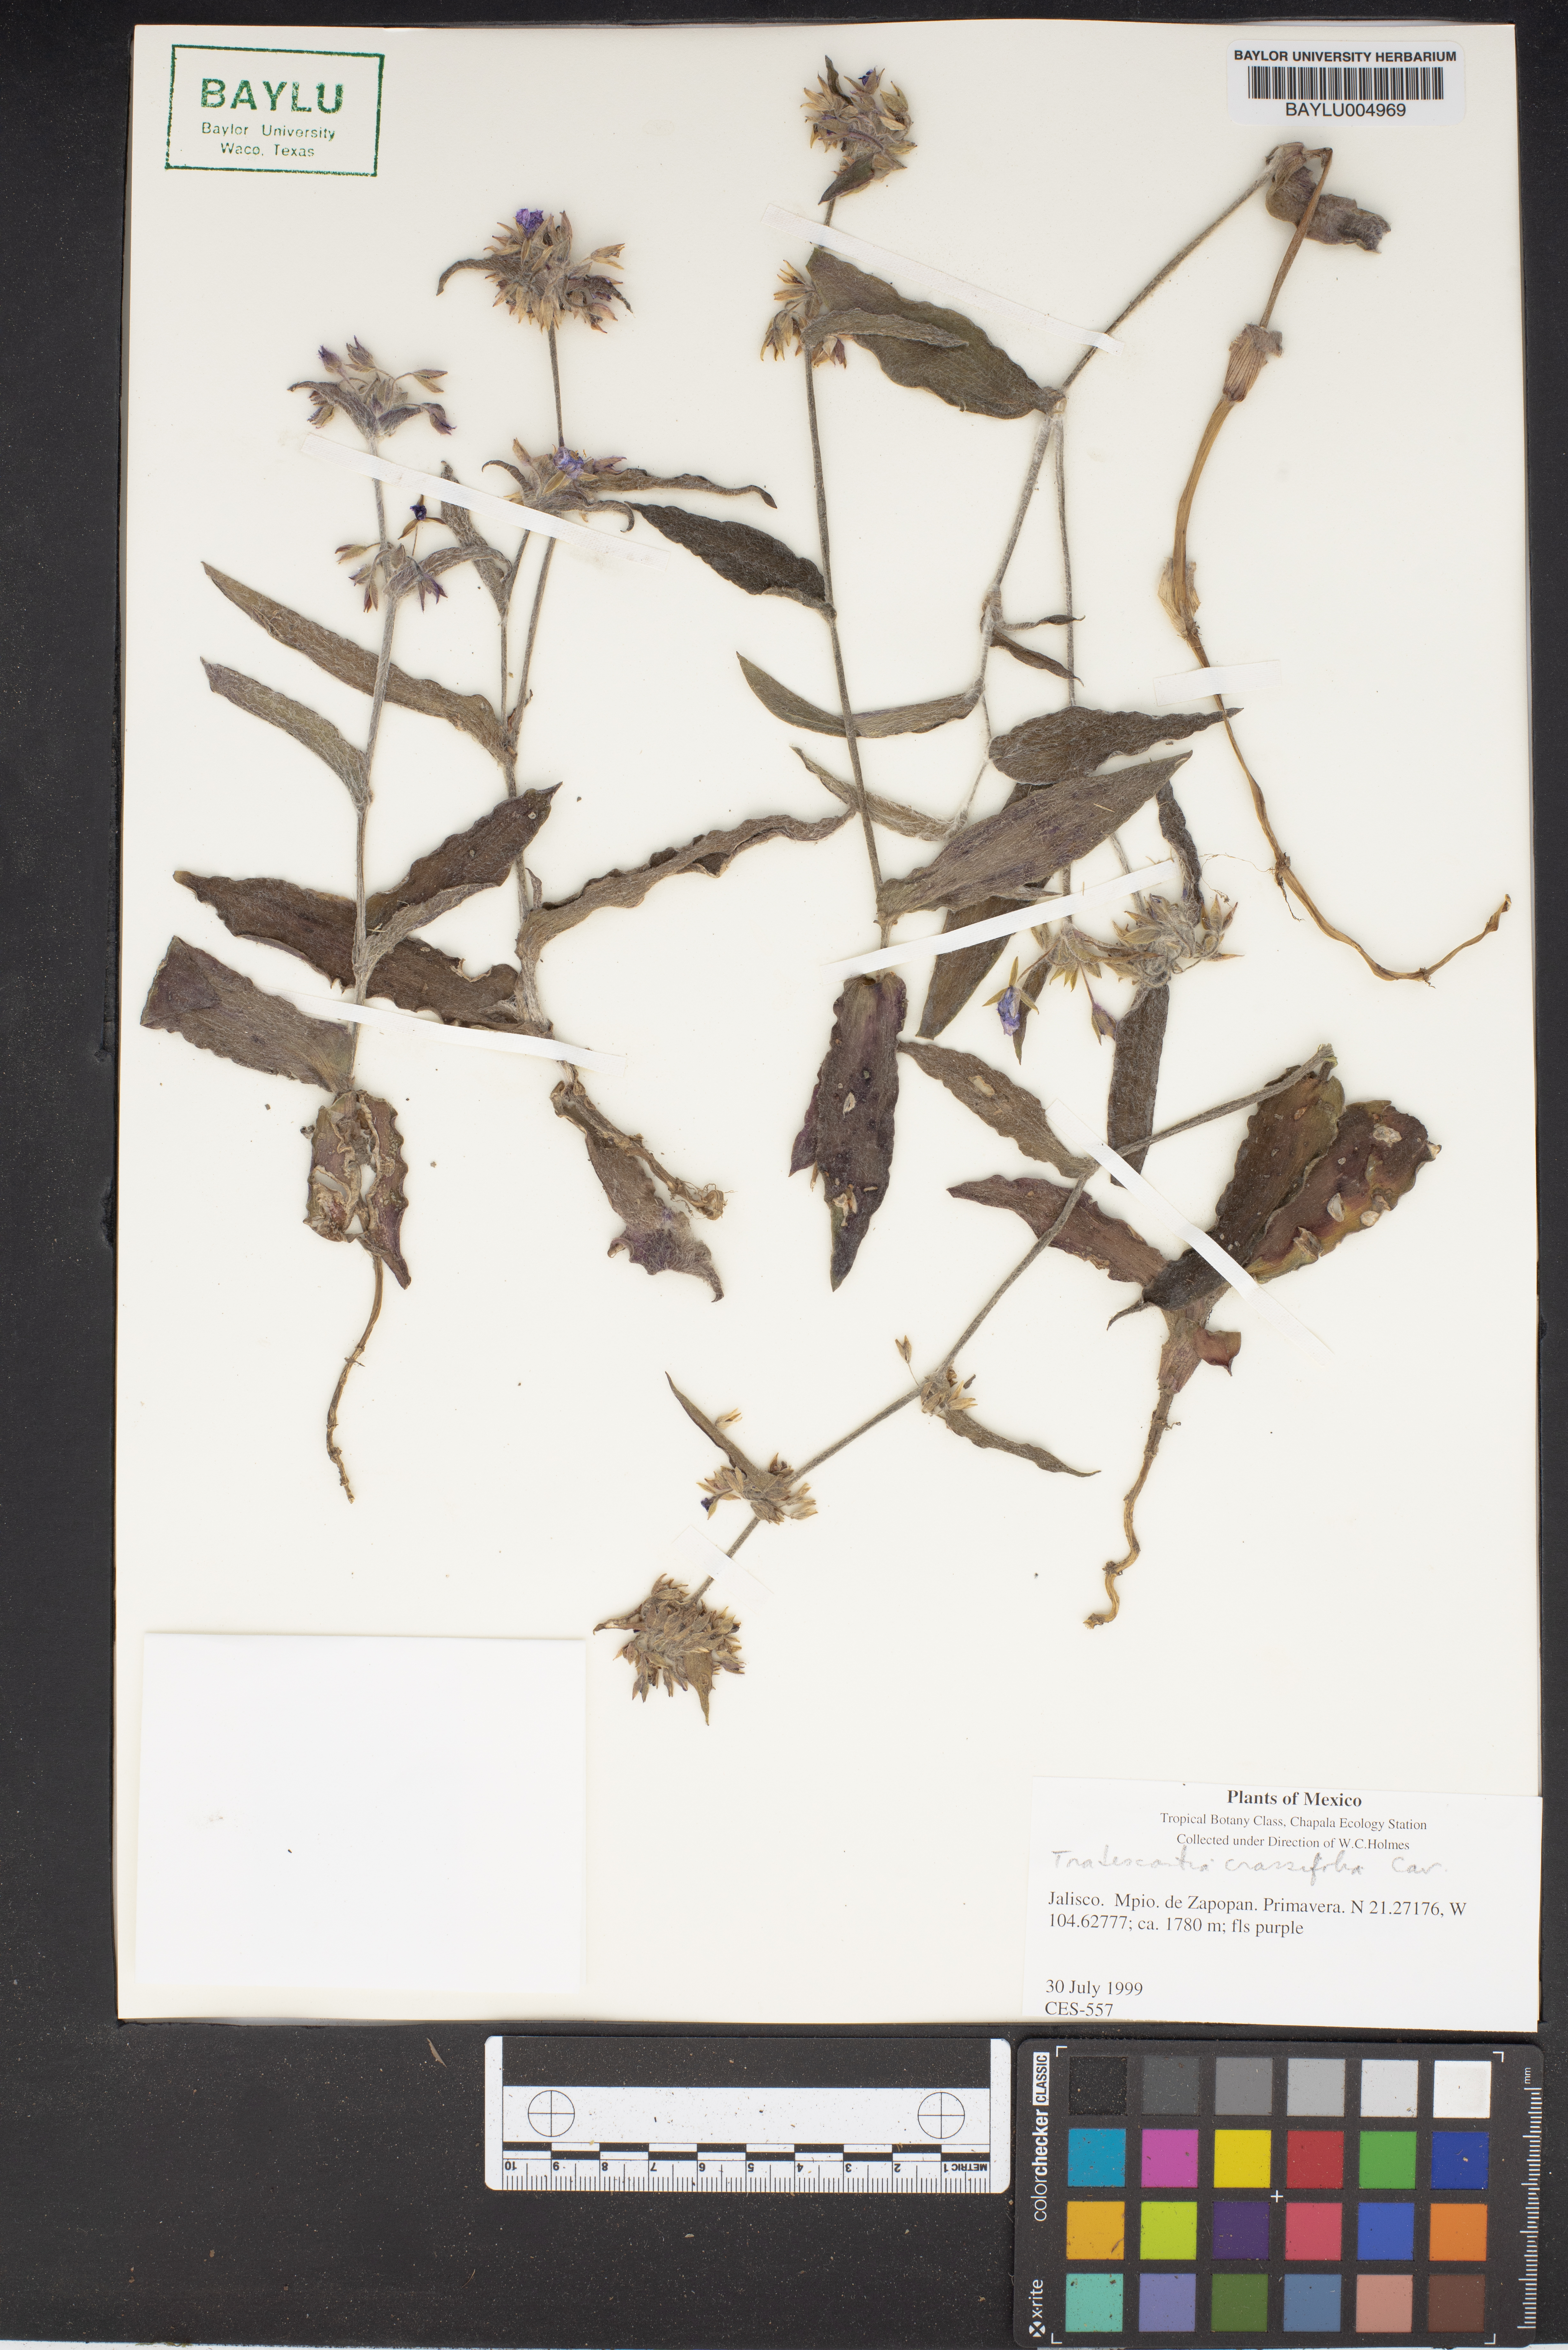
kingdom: Plantae
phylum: Tracheophyta
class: Liliopsida
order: Commelinales
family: Commelinaceae
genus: Tradescantia
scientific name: Tradescantia crassifolia
